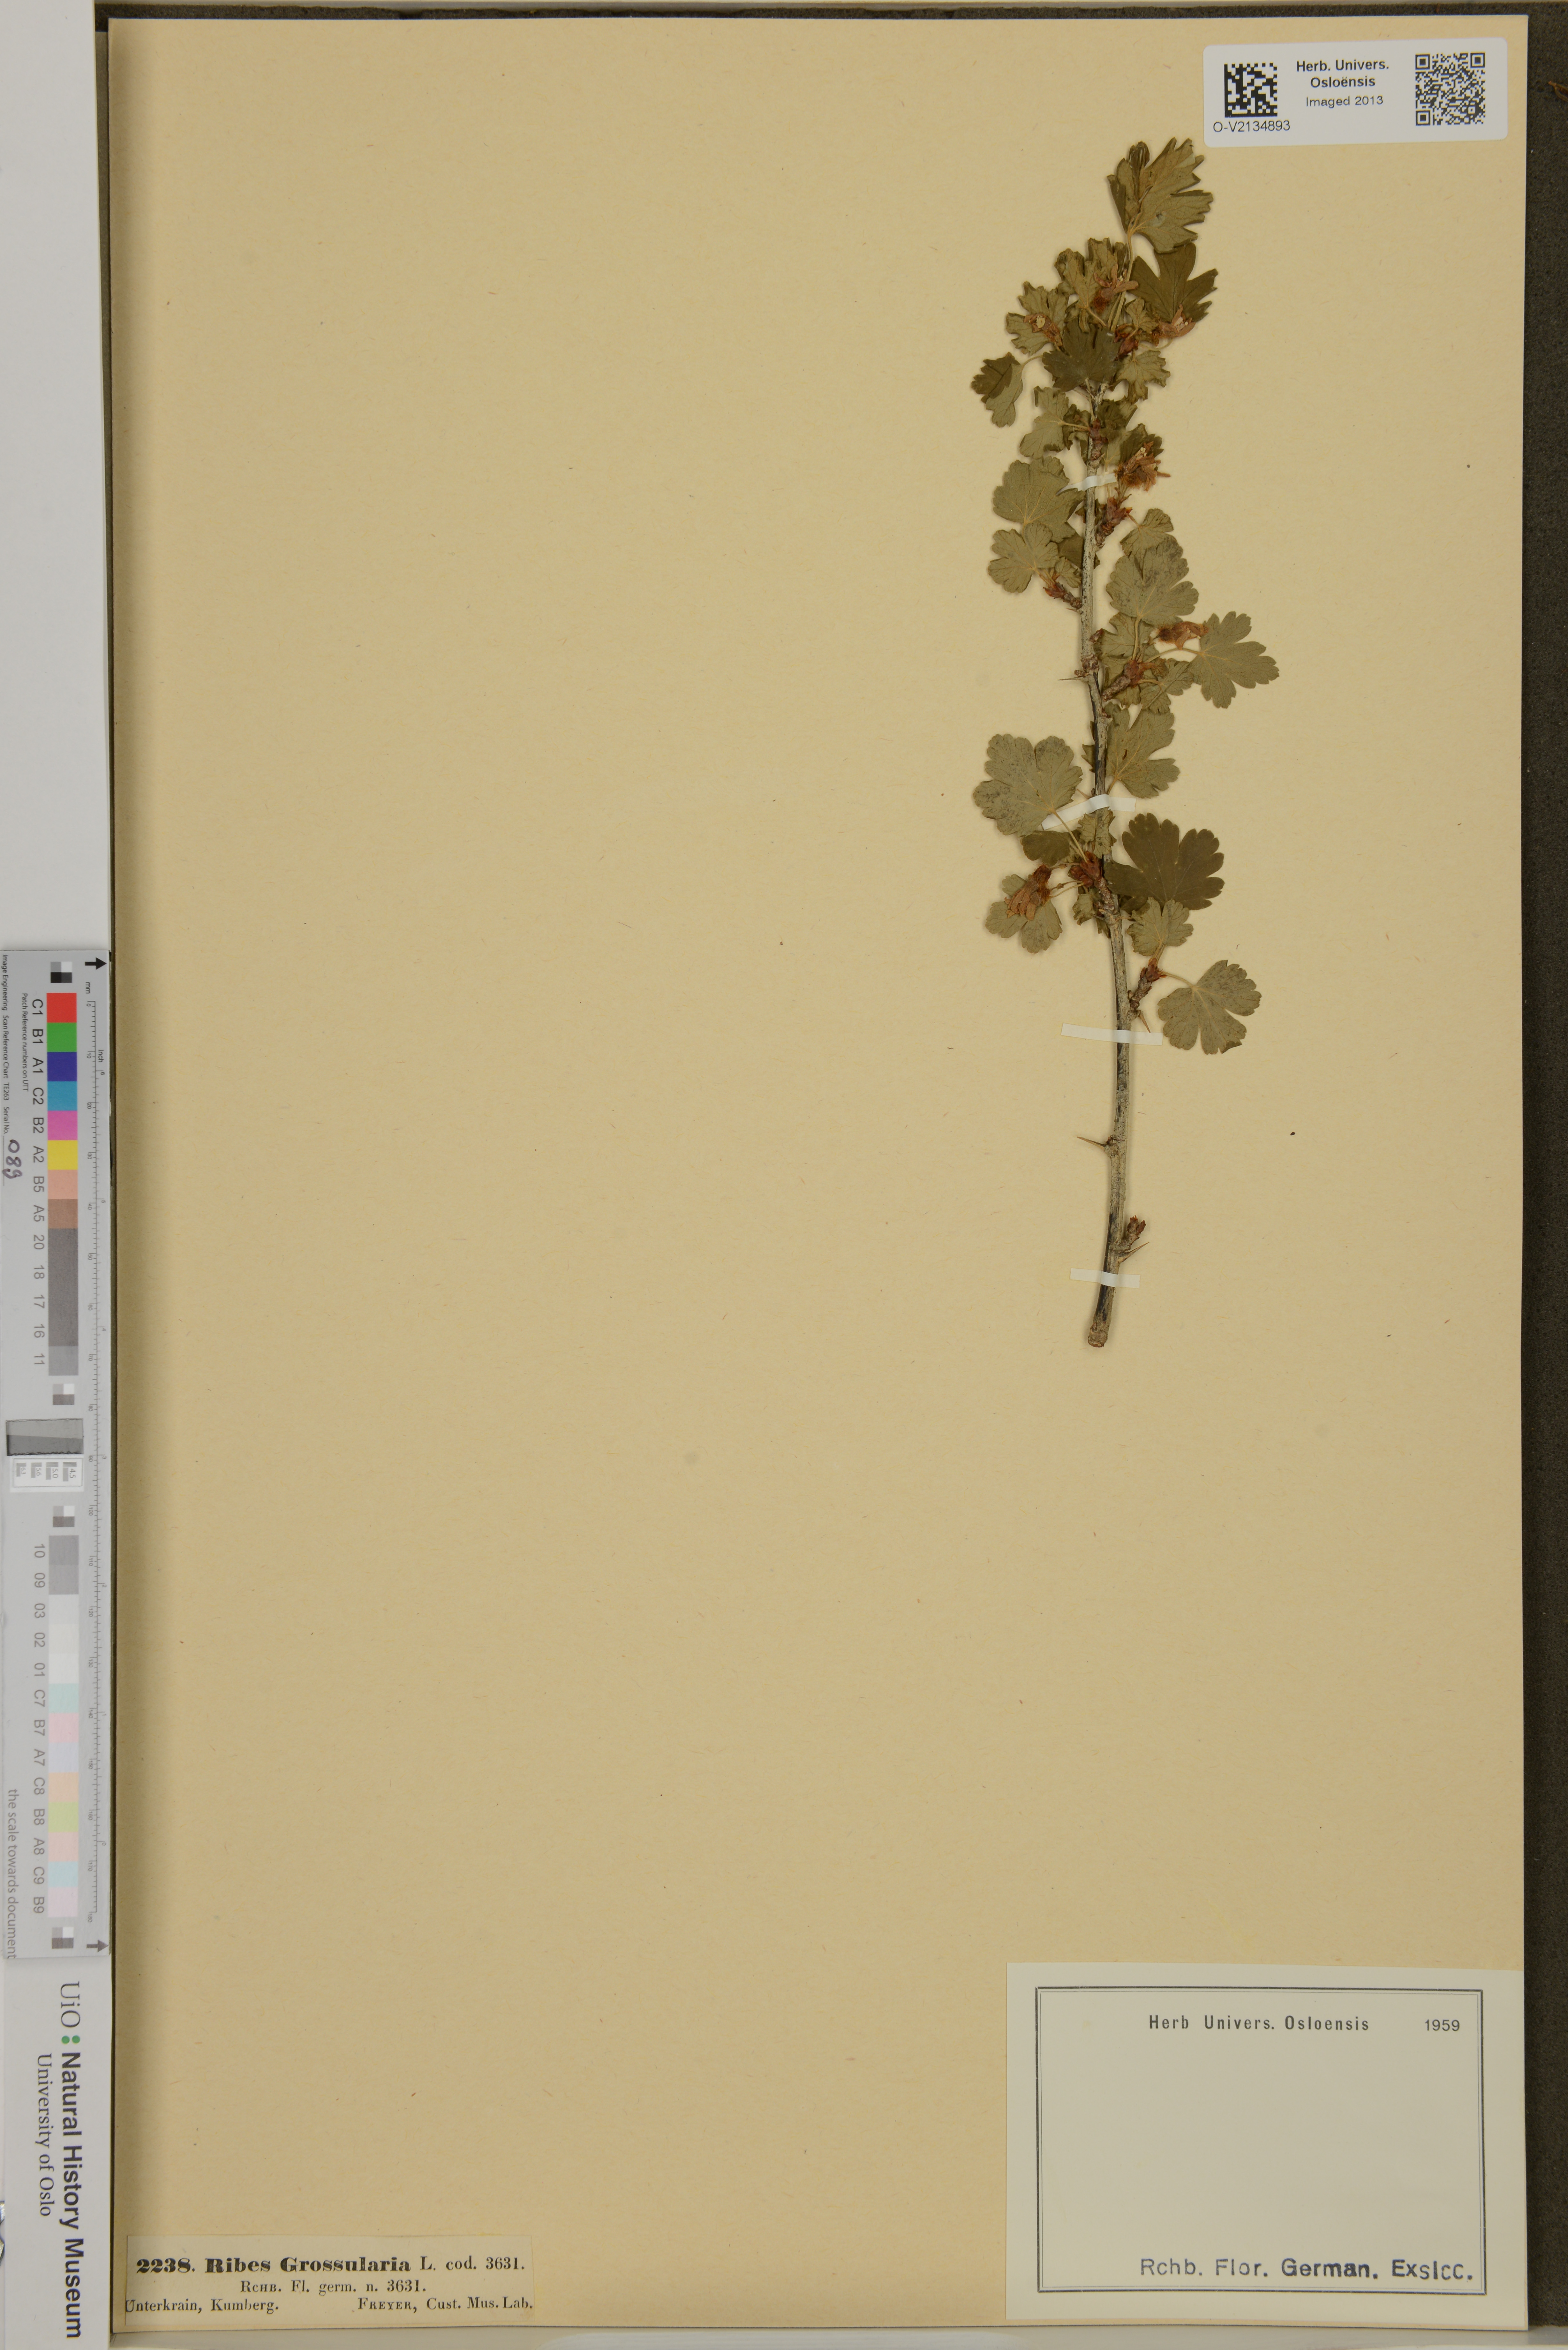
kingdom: Plantae
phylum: Tracheophyta
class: Magnoliopsida
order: Saxifragales
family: Grossulariaceae
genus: Ribes
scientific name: Ribes uva-crispa
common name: Gooseberry
